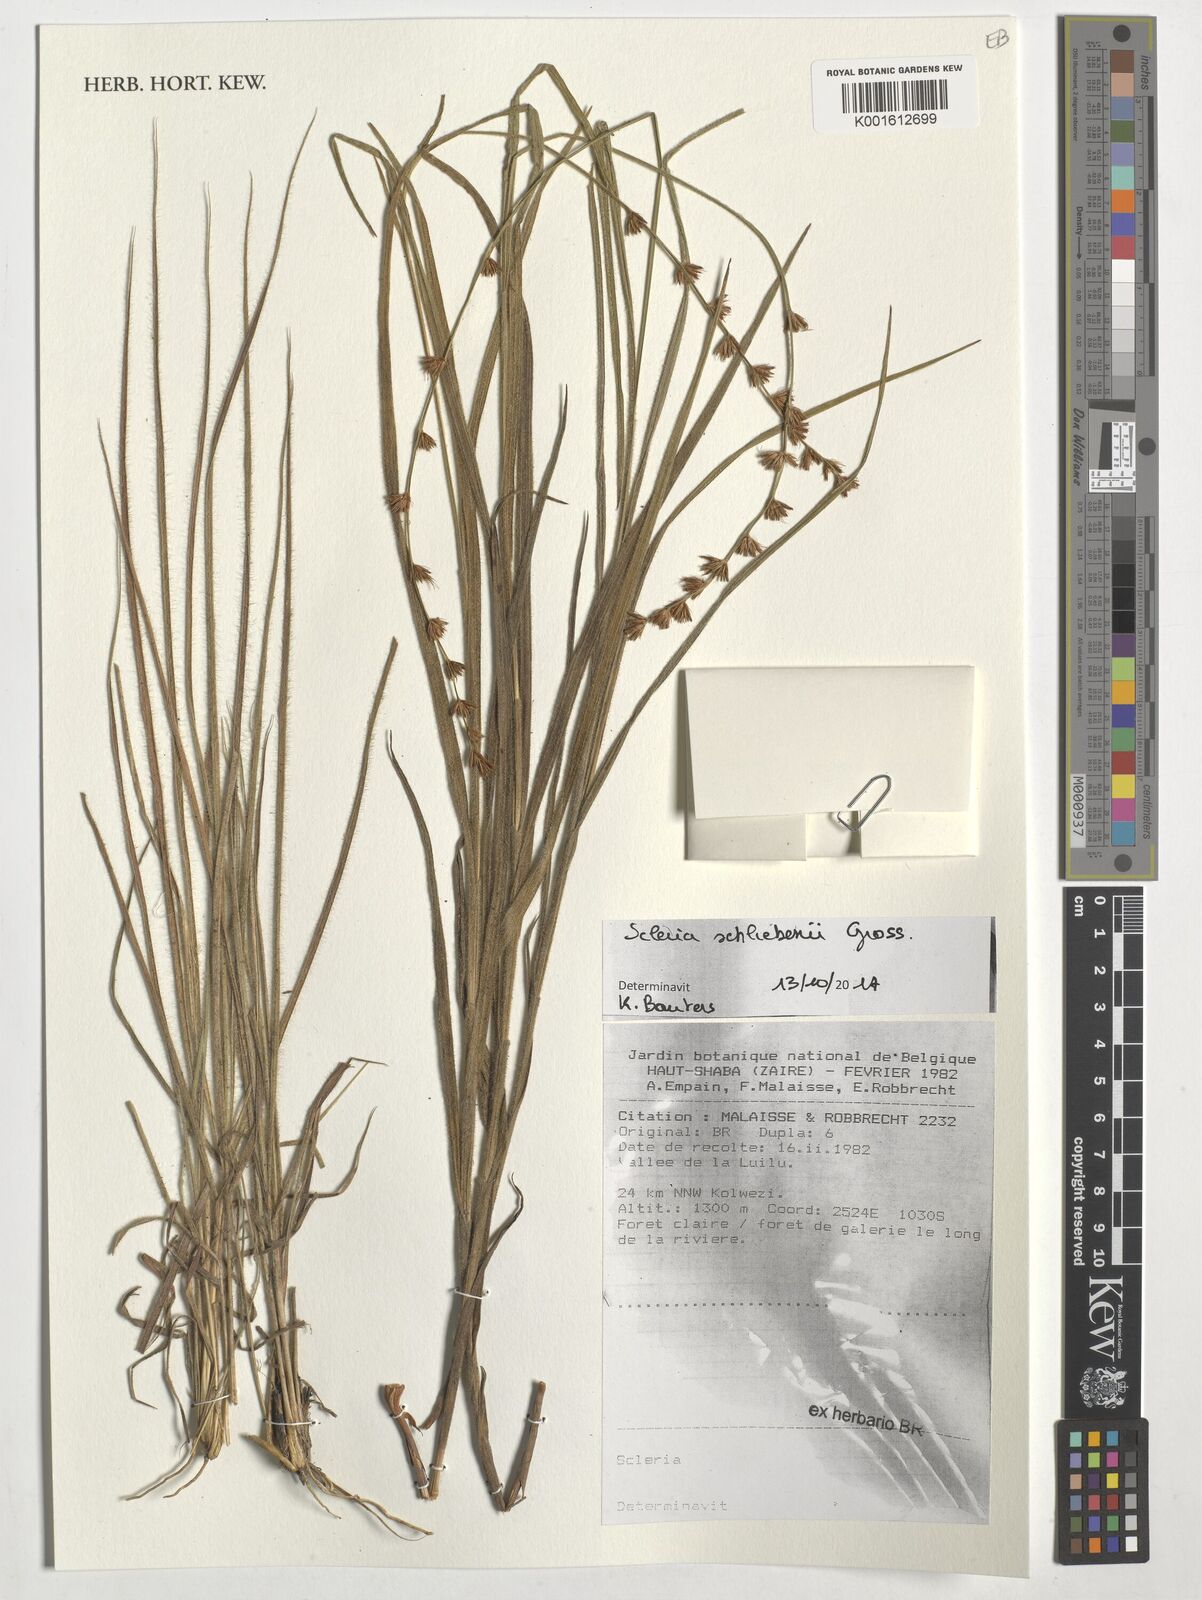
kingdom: Plantae
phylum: Tracheophyta
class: Liliopsida
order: Poales
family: Cyperaceae
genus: Scleria
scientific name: Scleria bulbifera
